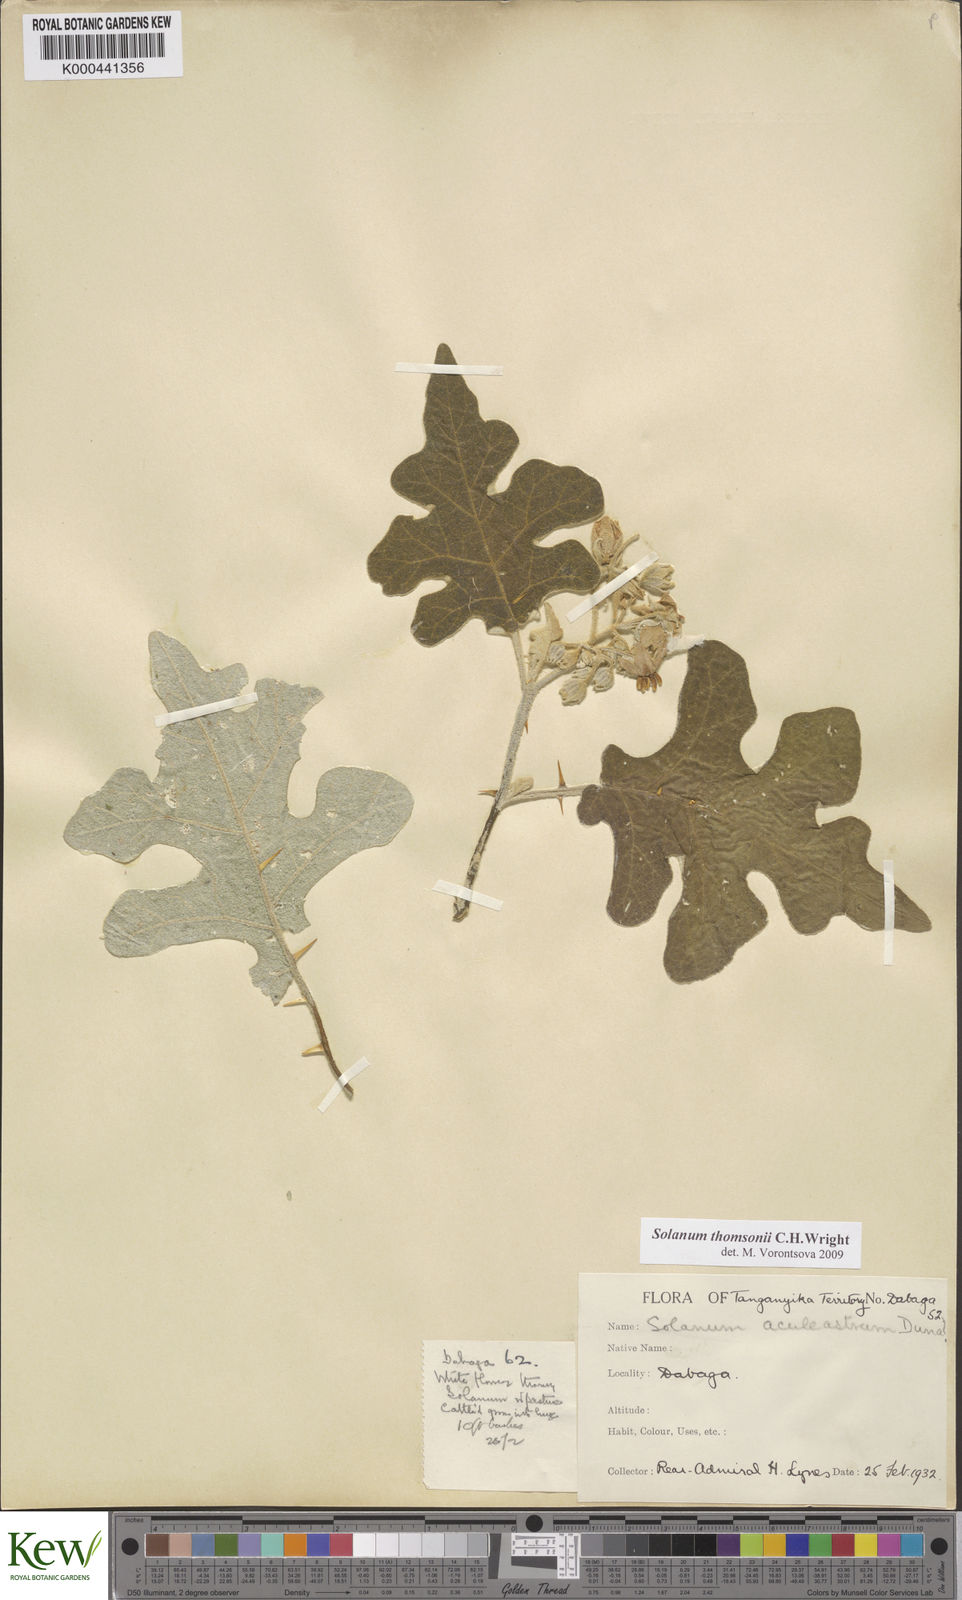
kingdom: Plantae
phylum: Tracheophyta
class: Magnoliopsida
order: Solanales
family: Solanaceae
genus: Solanum
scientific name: Solanum aculeastrum
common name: Goat bitter-apple
